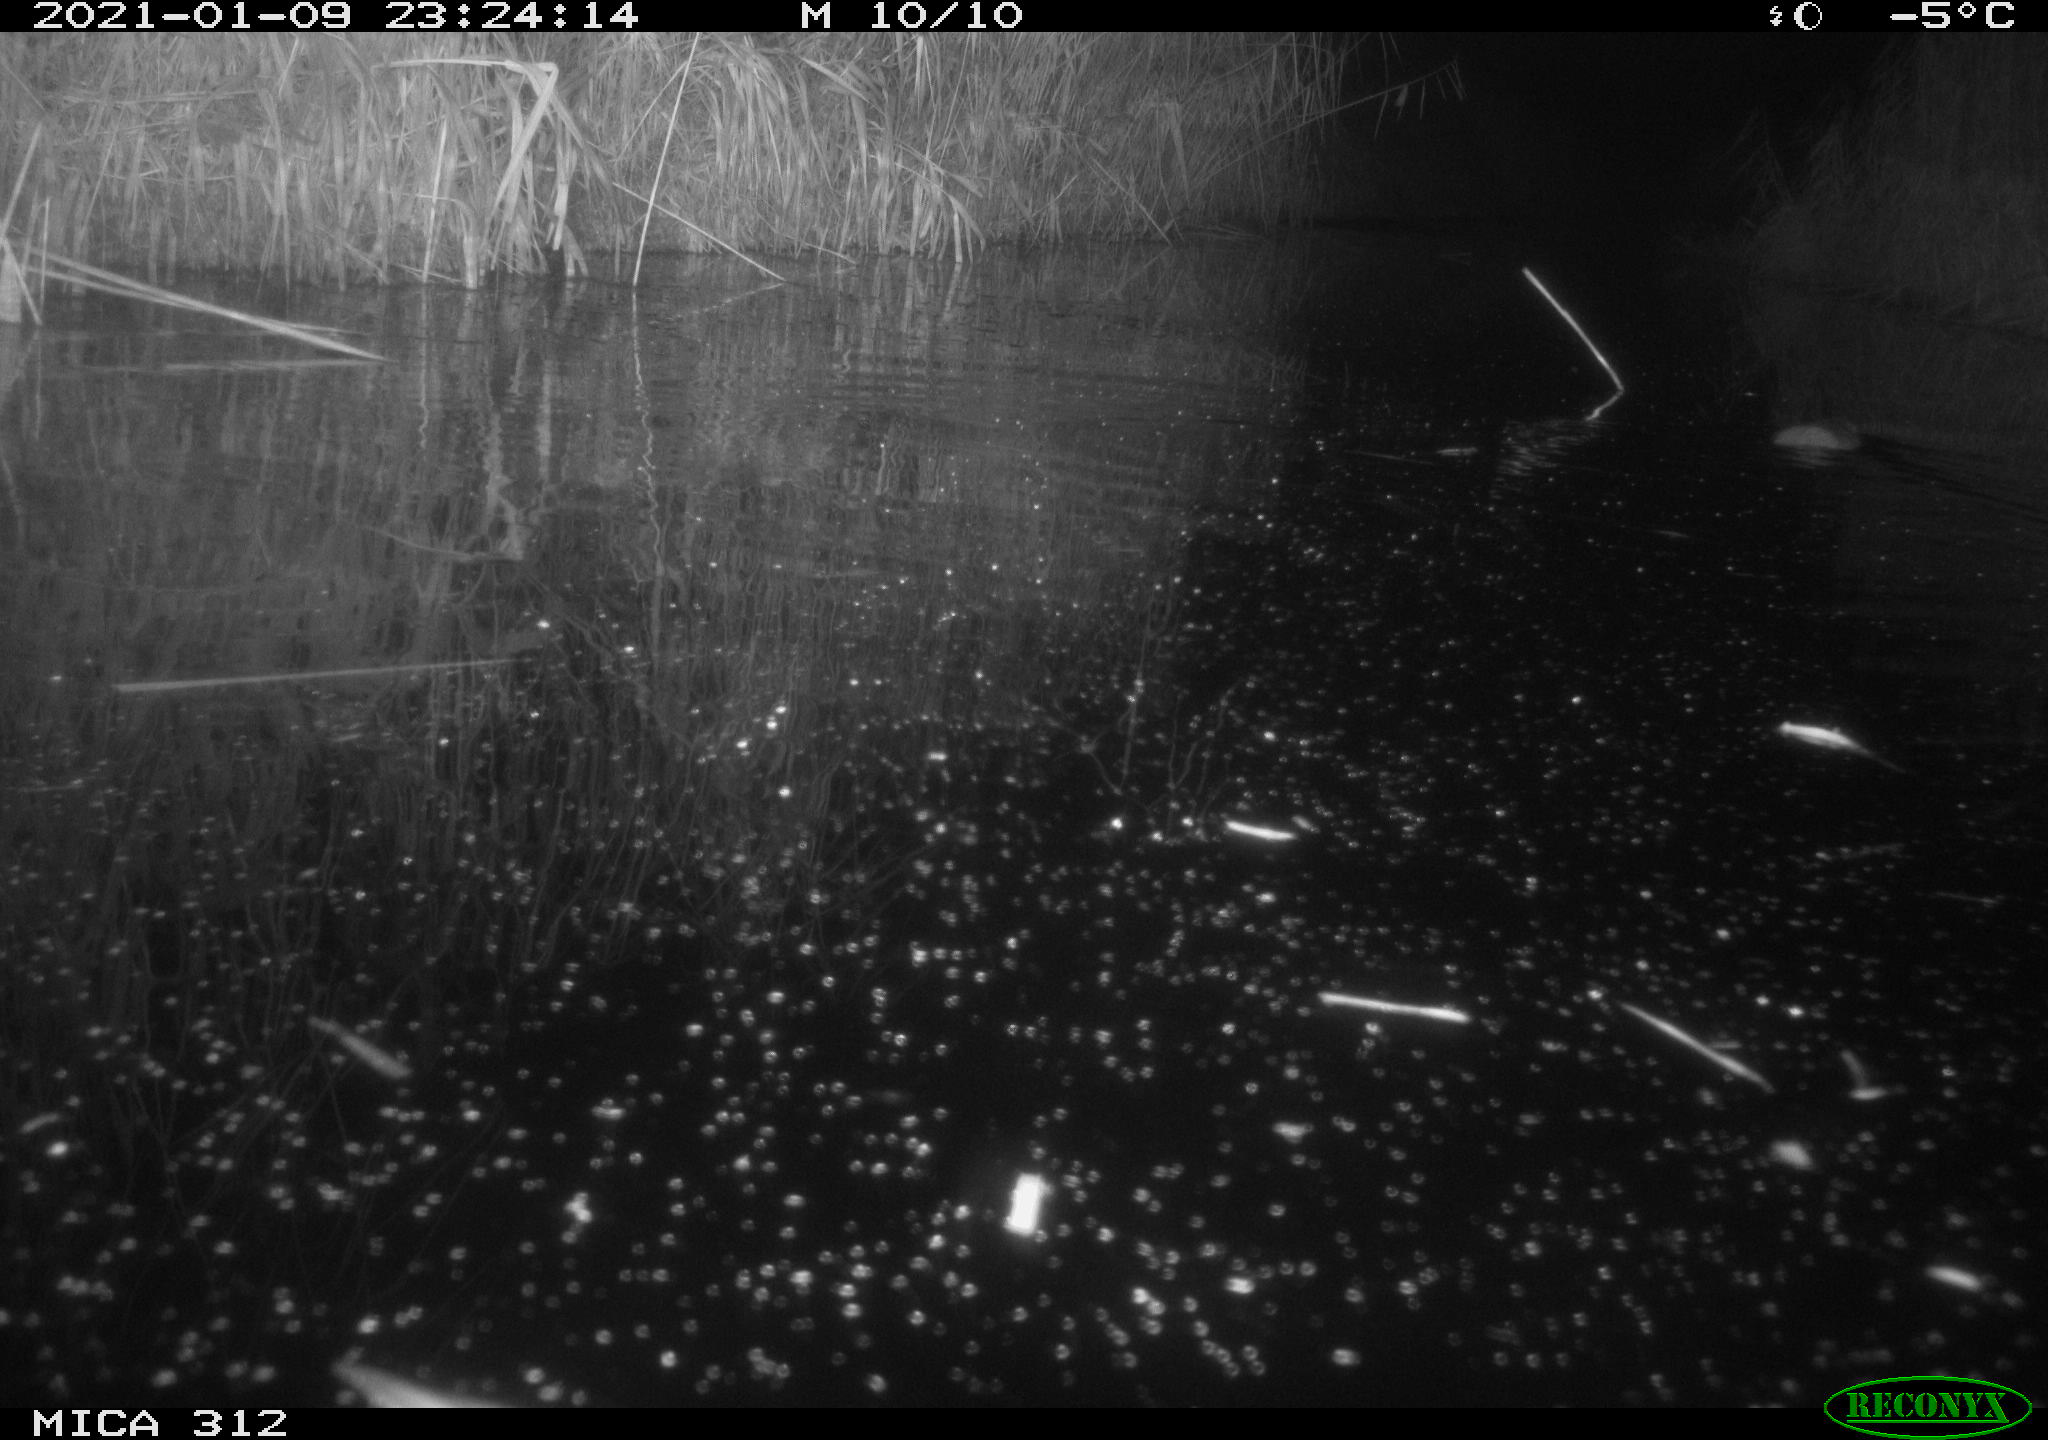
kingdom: Animalia
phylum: Chordata
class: Mammalia
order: Rodentia
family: Muridae
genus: Rattus
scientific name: Rattus norvegicus
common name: Brown rat
